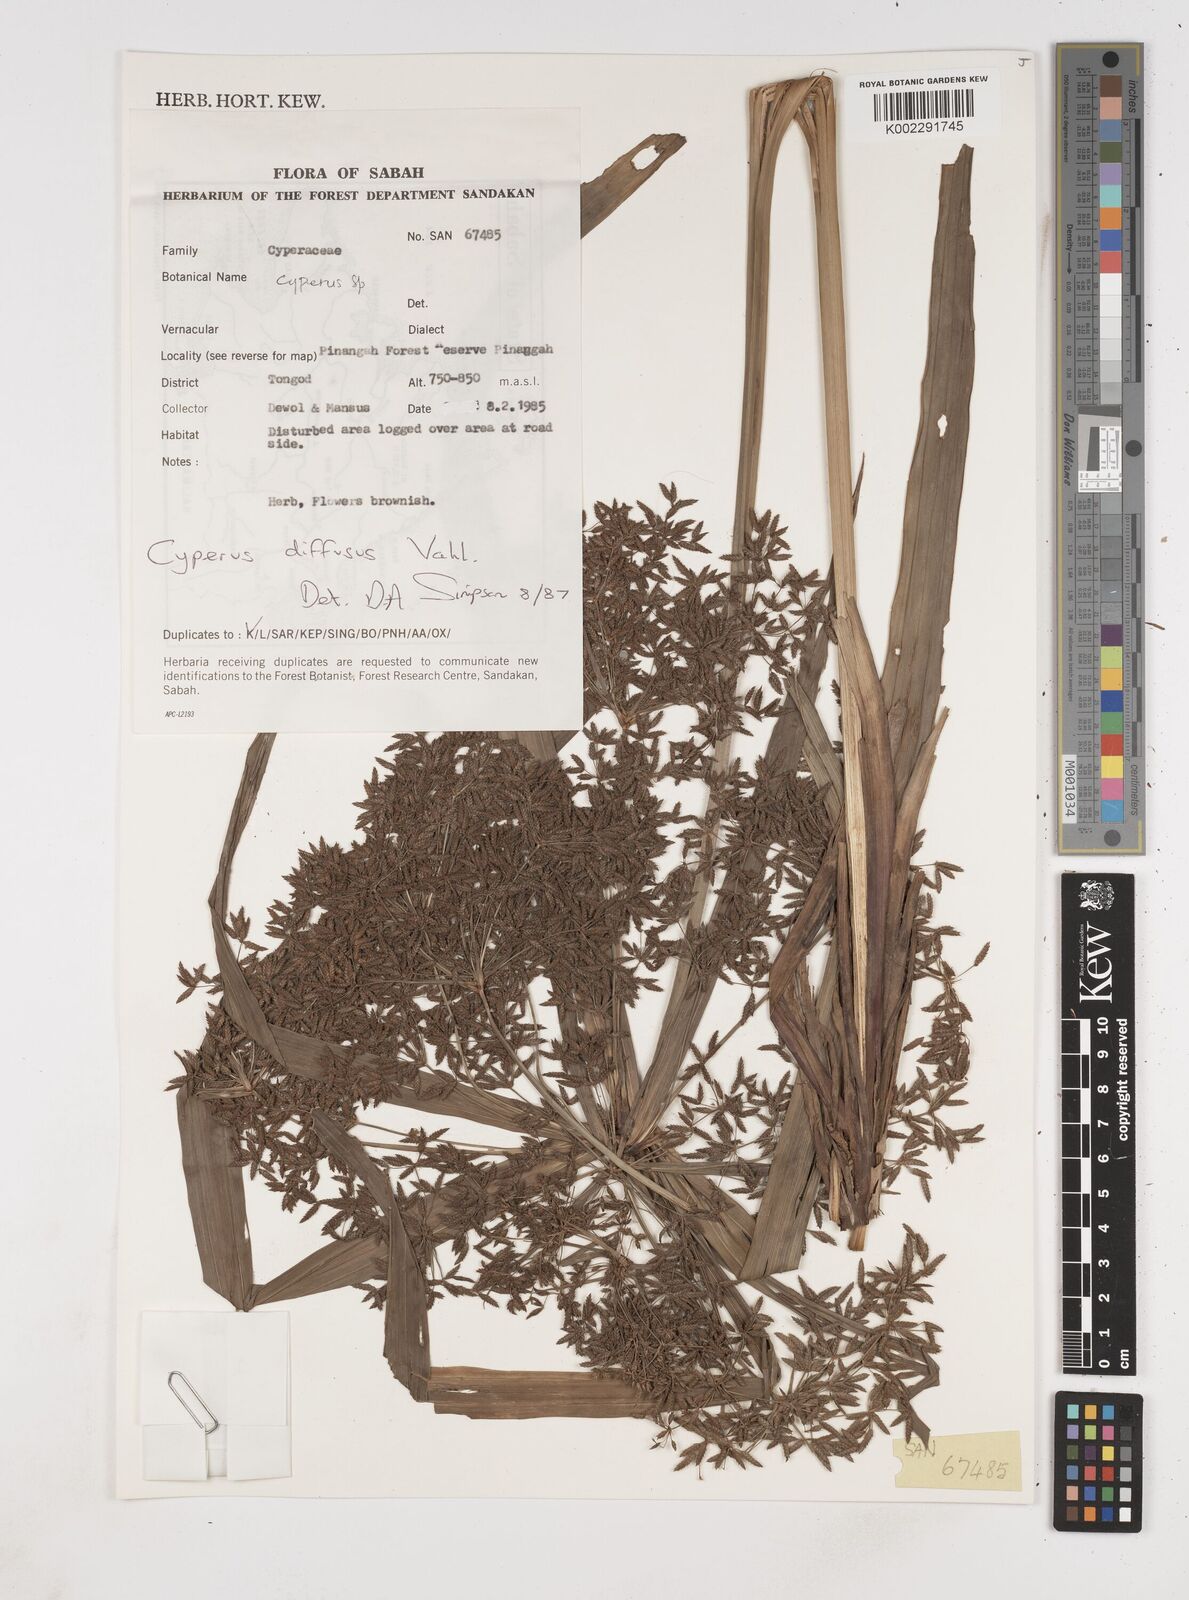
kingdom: Plantae
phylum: Tracheophyta
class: Liliopsida
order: Poales
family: Cyperaceae
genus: Cyperus
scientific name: Cyperus diffusus
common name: Dwarf umbrella grass
